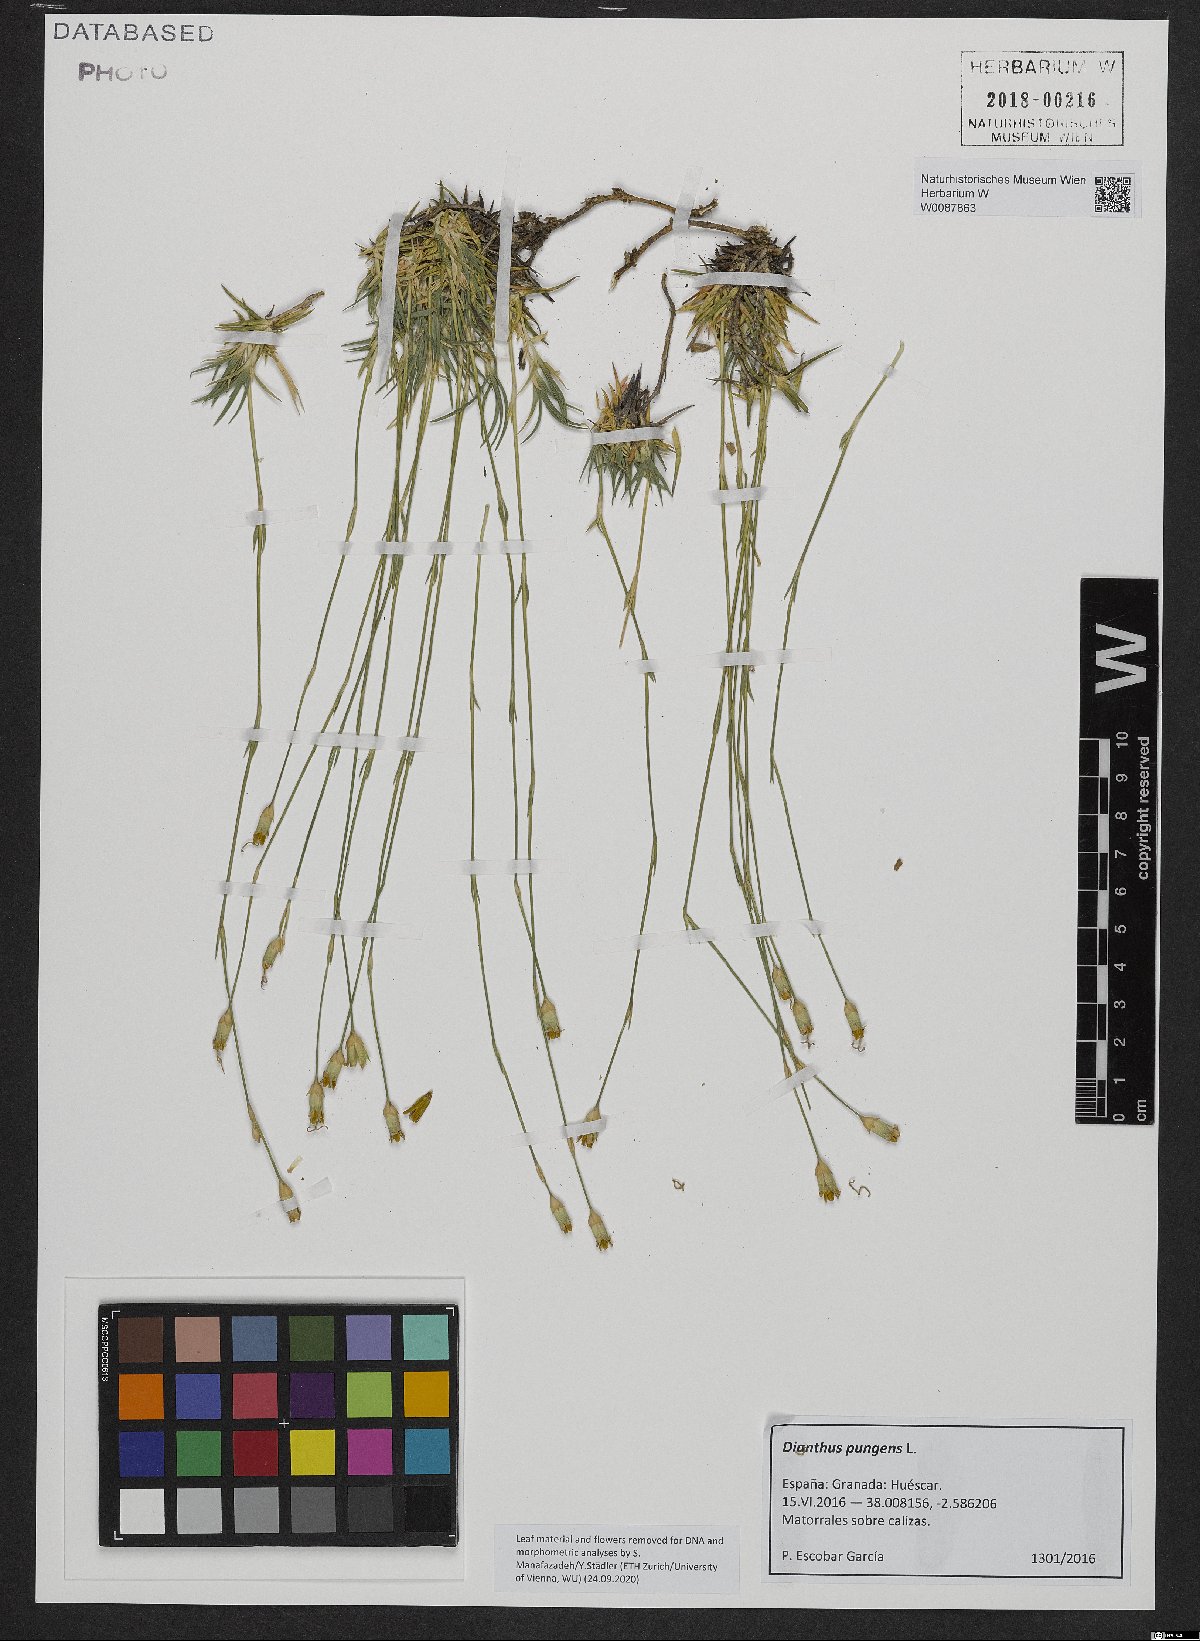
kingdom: Plantae
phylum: Tracheophyta
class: Magnoliopsida
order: Caryophyllales
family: Caryophyllaceae
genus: Dianthus
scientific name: Dianthus pungens
